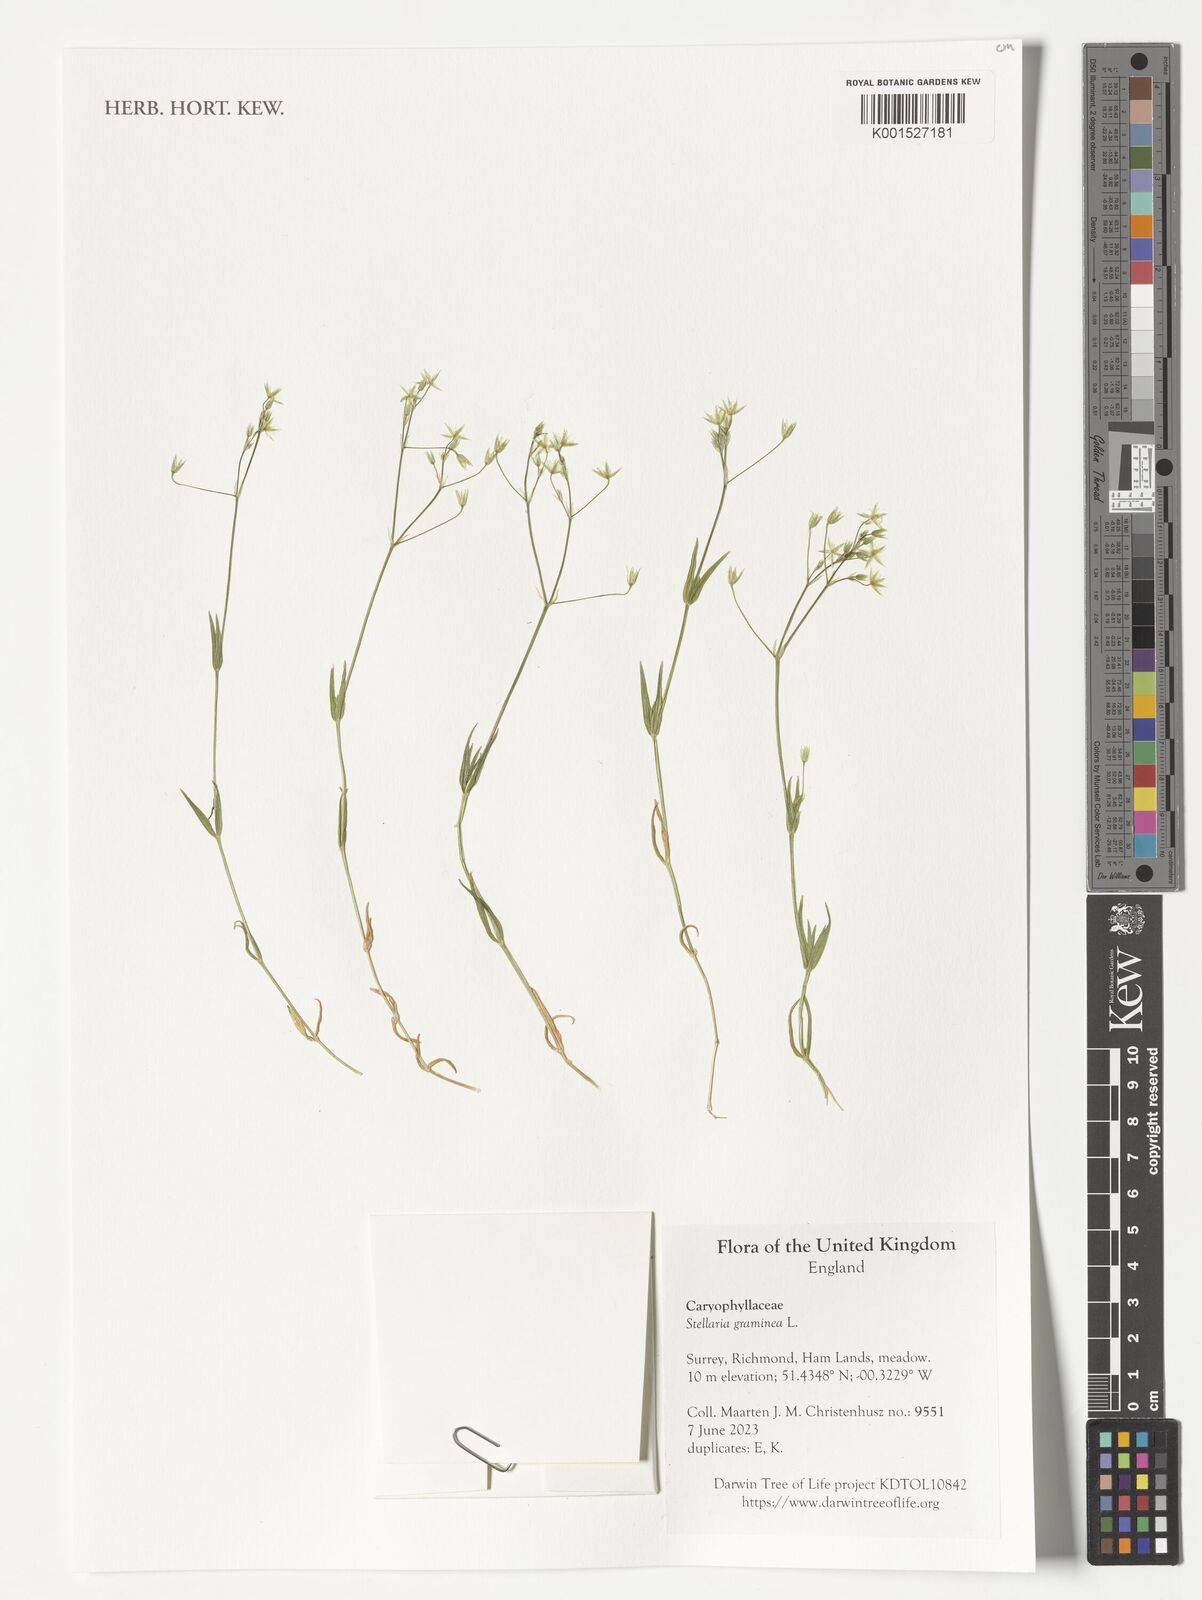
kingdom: Plantae
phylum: Tracheophyta
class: Magnoliopsida
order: Caryophyllales
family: Caryophyllaceae
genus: Stellaria
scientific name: Stellaria graminea
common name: Grass-like starwort
